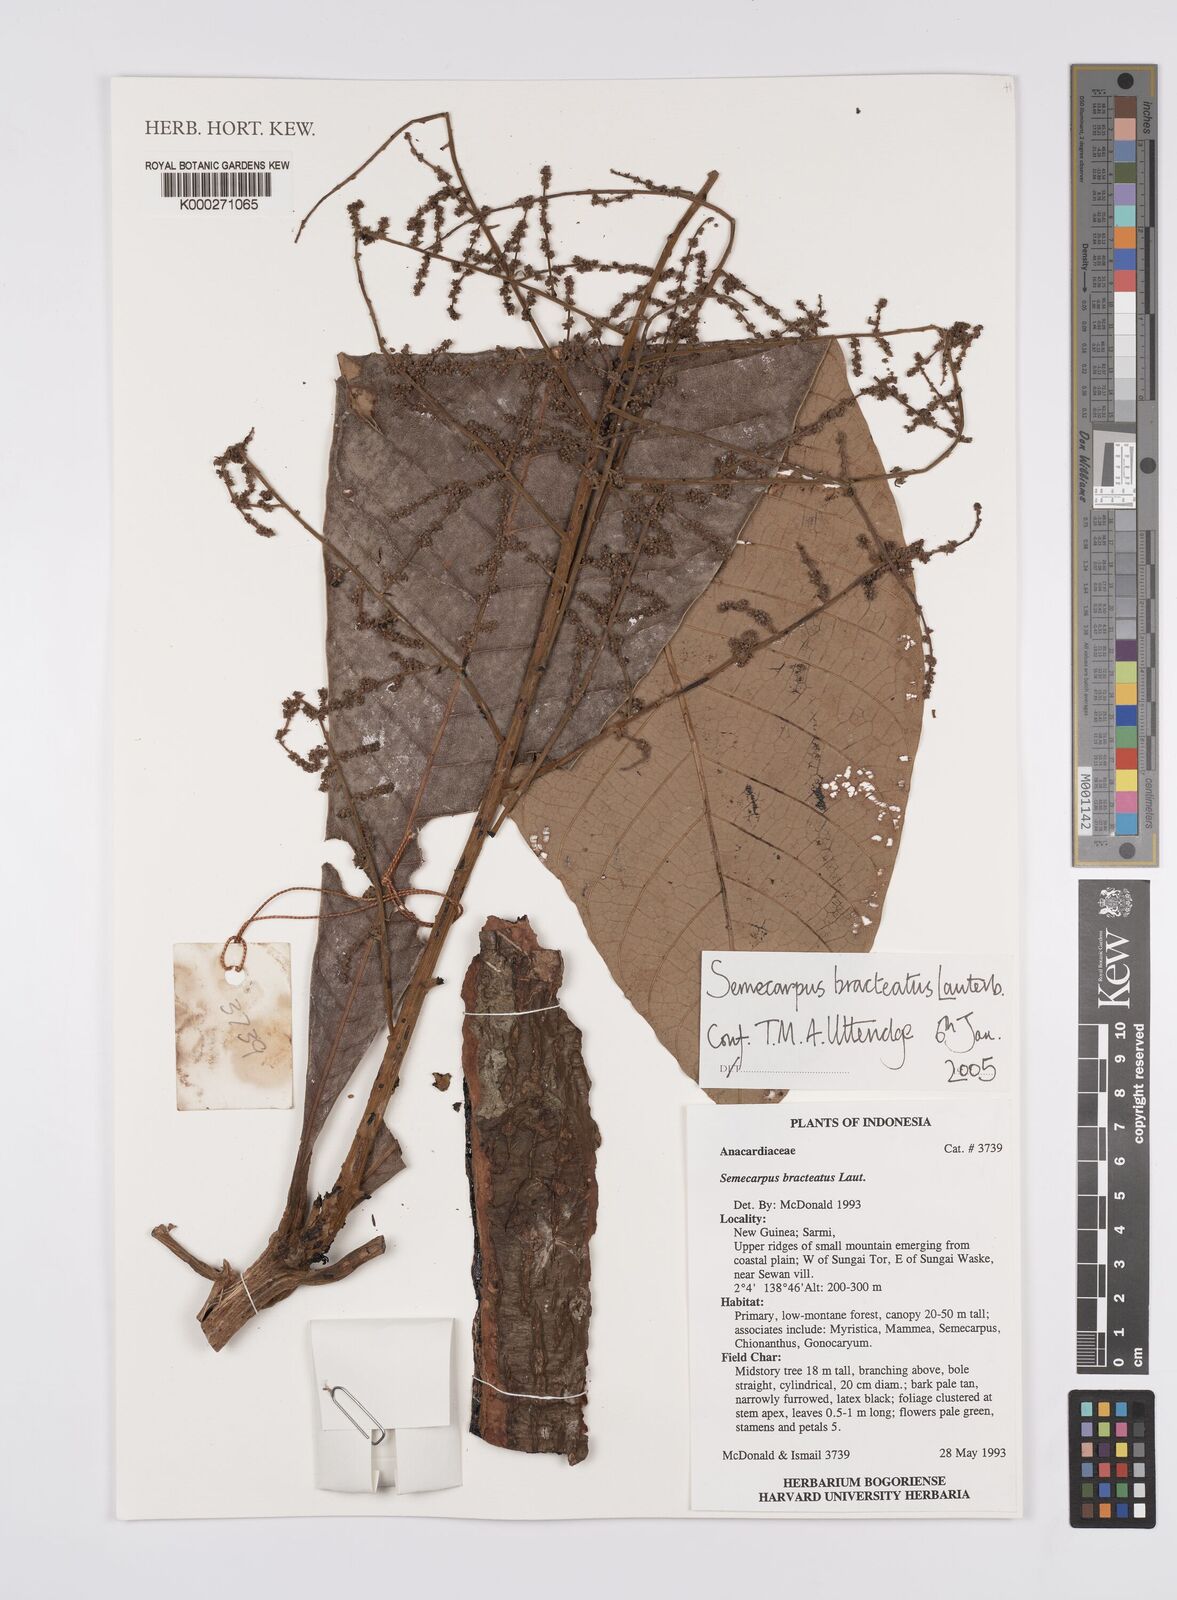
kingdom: Plantae
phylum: Tracheophyta
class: Magnoliopsida
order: Sapindales
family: Anacardiaceae
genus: Semecarpus
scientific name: Semecarpus bracteatus
